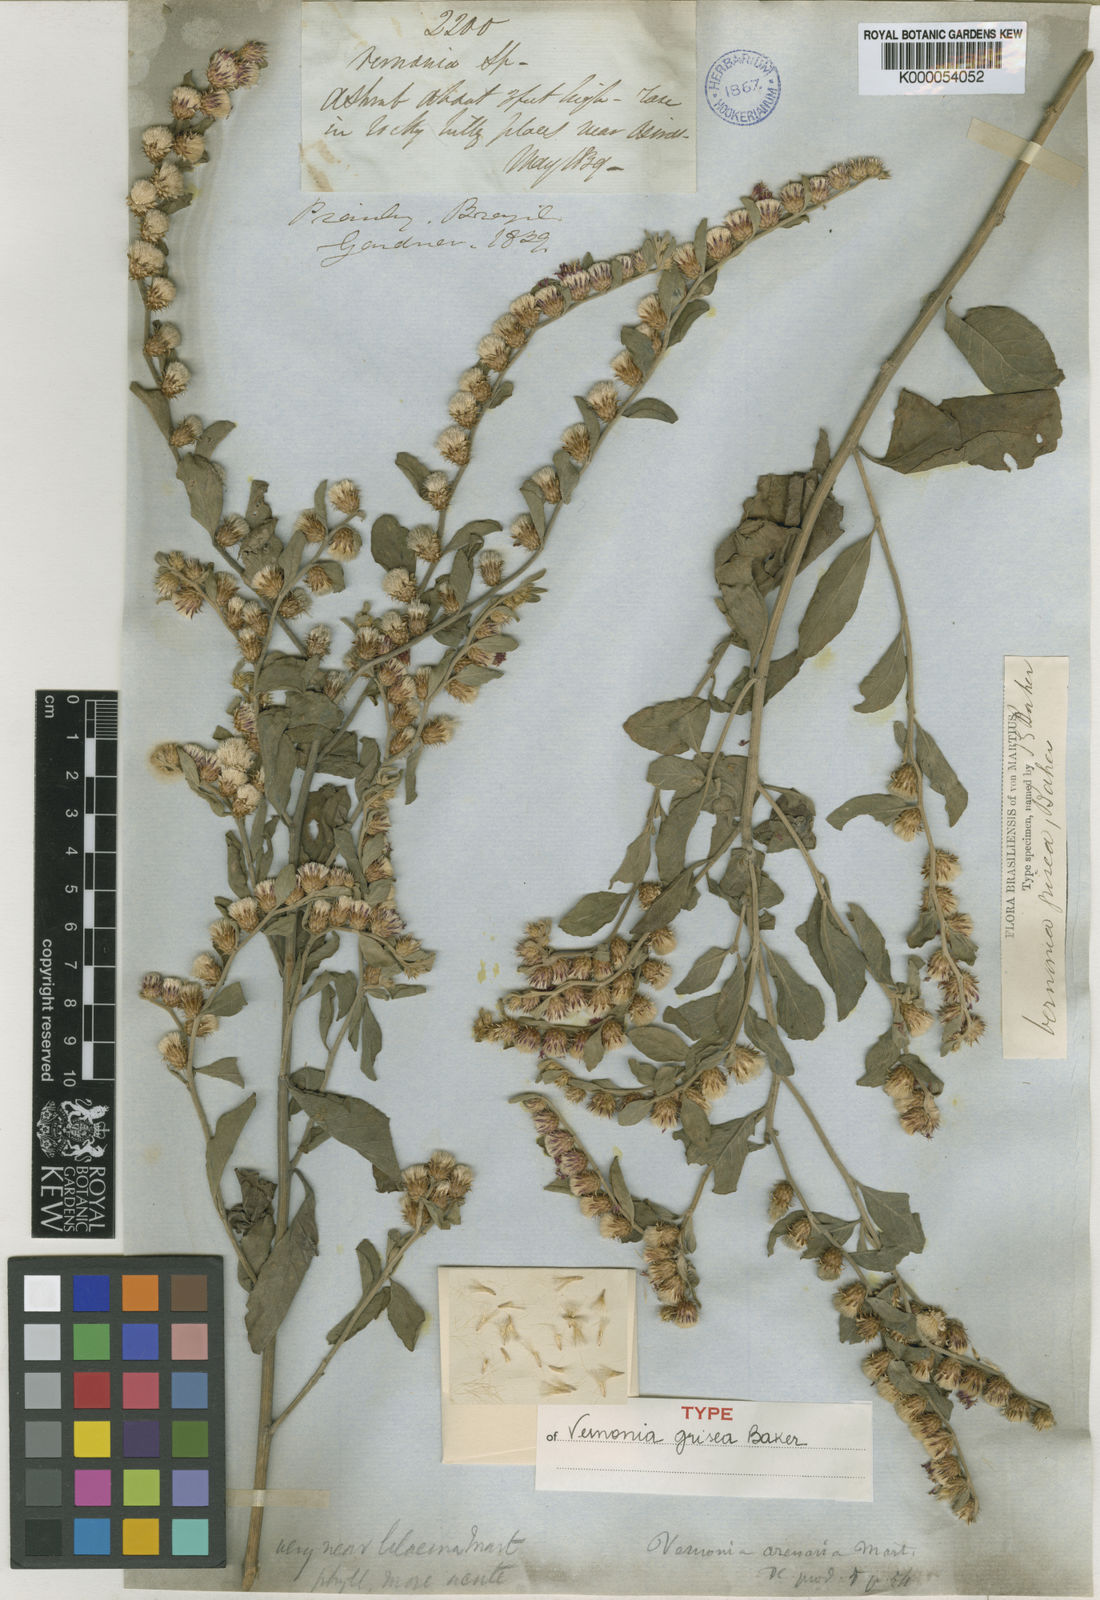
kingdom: Plantae
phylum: Tracheophyta
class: Magnoliopsida
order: Asterales
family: Asteraceae
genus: Lepidaploa
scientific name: Lepidaploa arenaria
